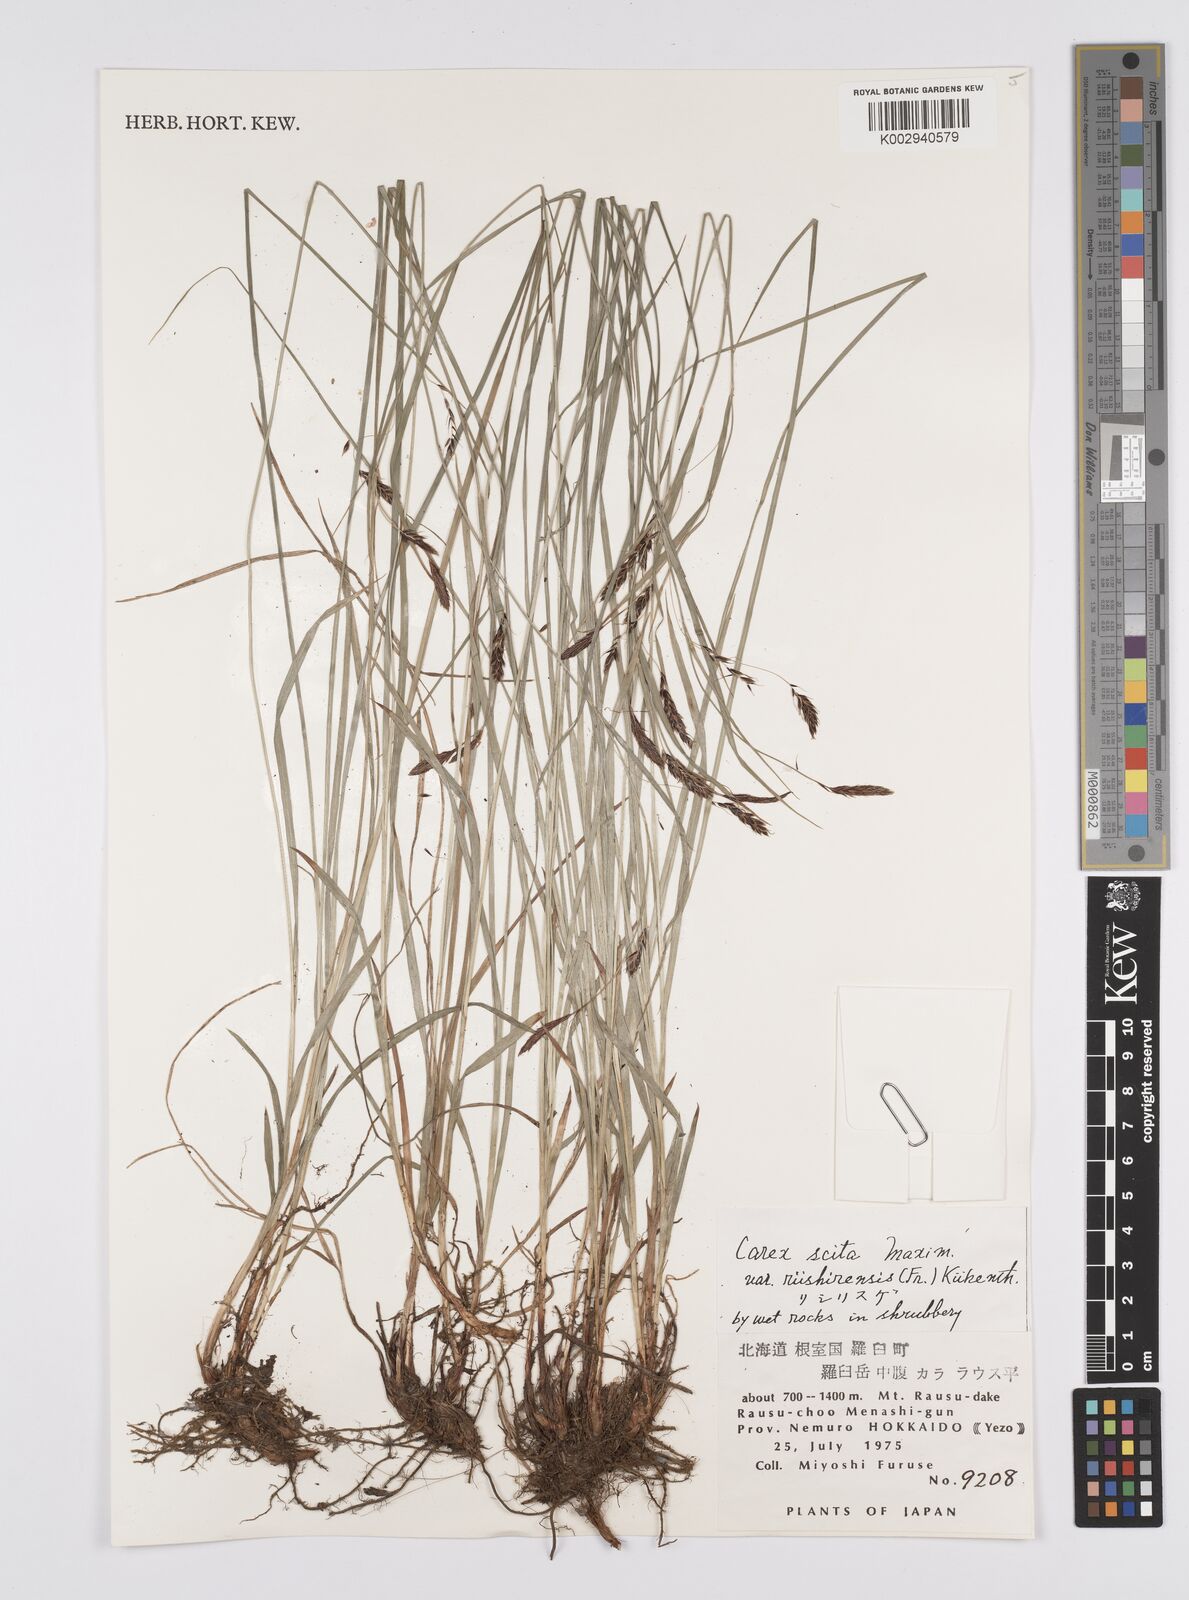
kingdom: Plantae
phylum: Tracheophyta
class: Liliopsida
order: Poales
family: Cyperaceae
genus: Carex
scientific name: Carex scita
